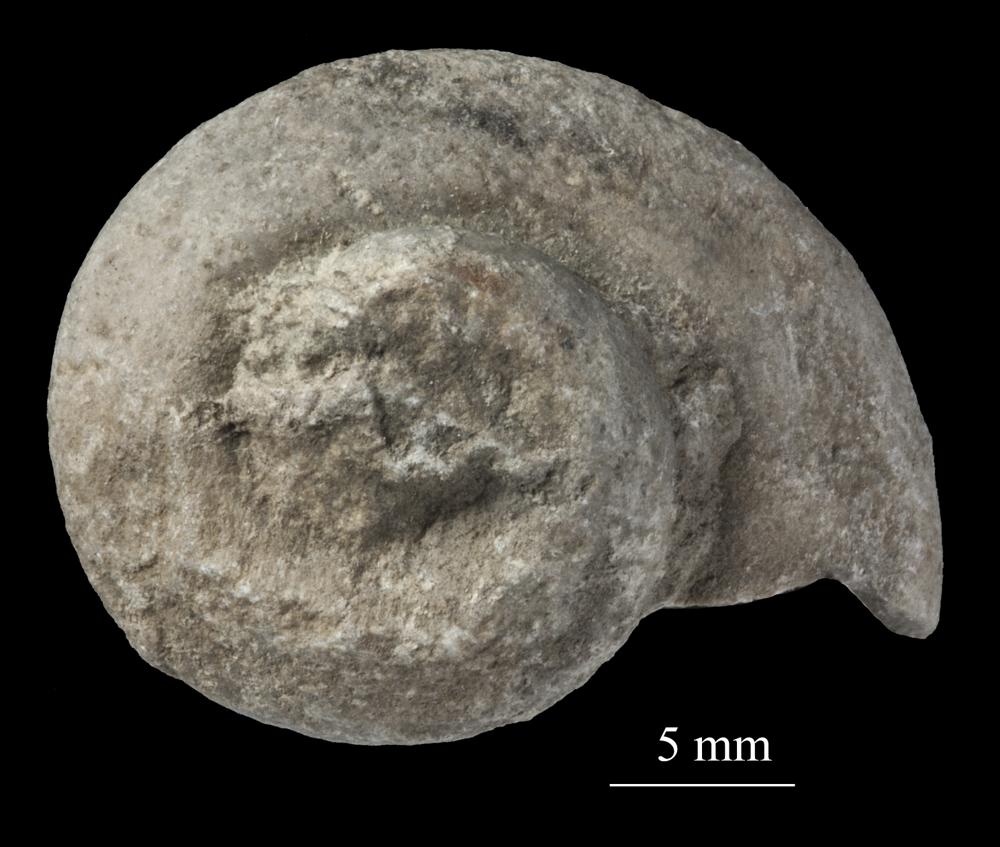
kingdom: Animalia
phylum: Mollusca
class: Gastropoda
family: Lophospiridae
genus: Lophospira
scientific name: Lophospira
